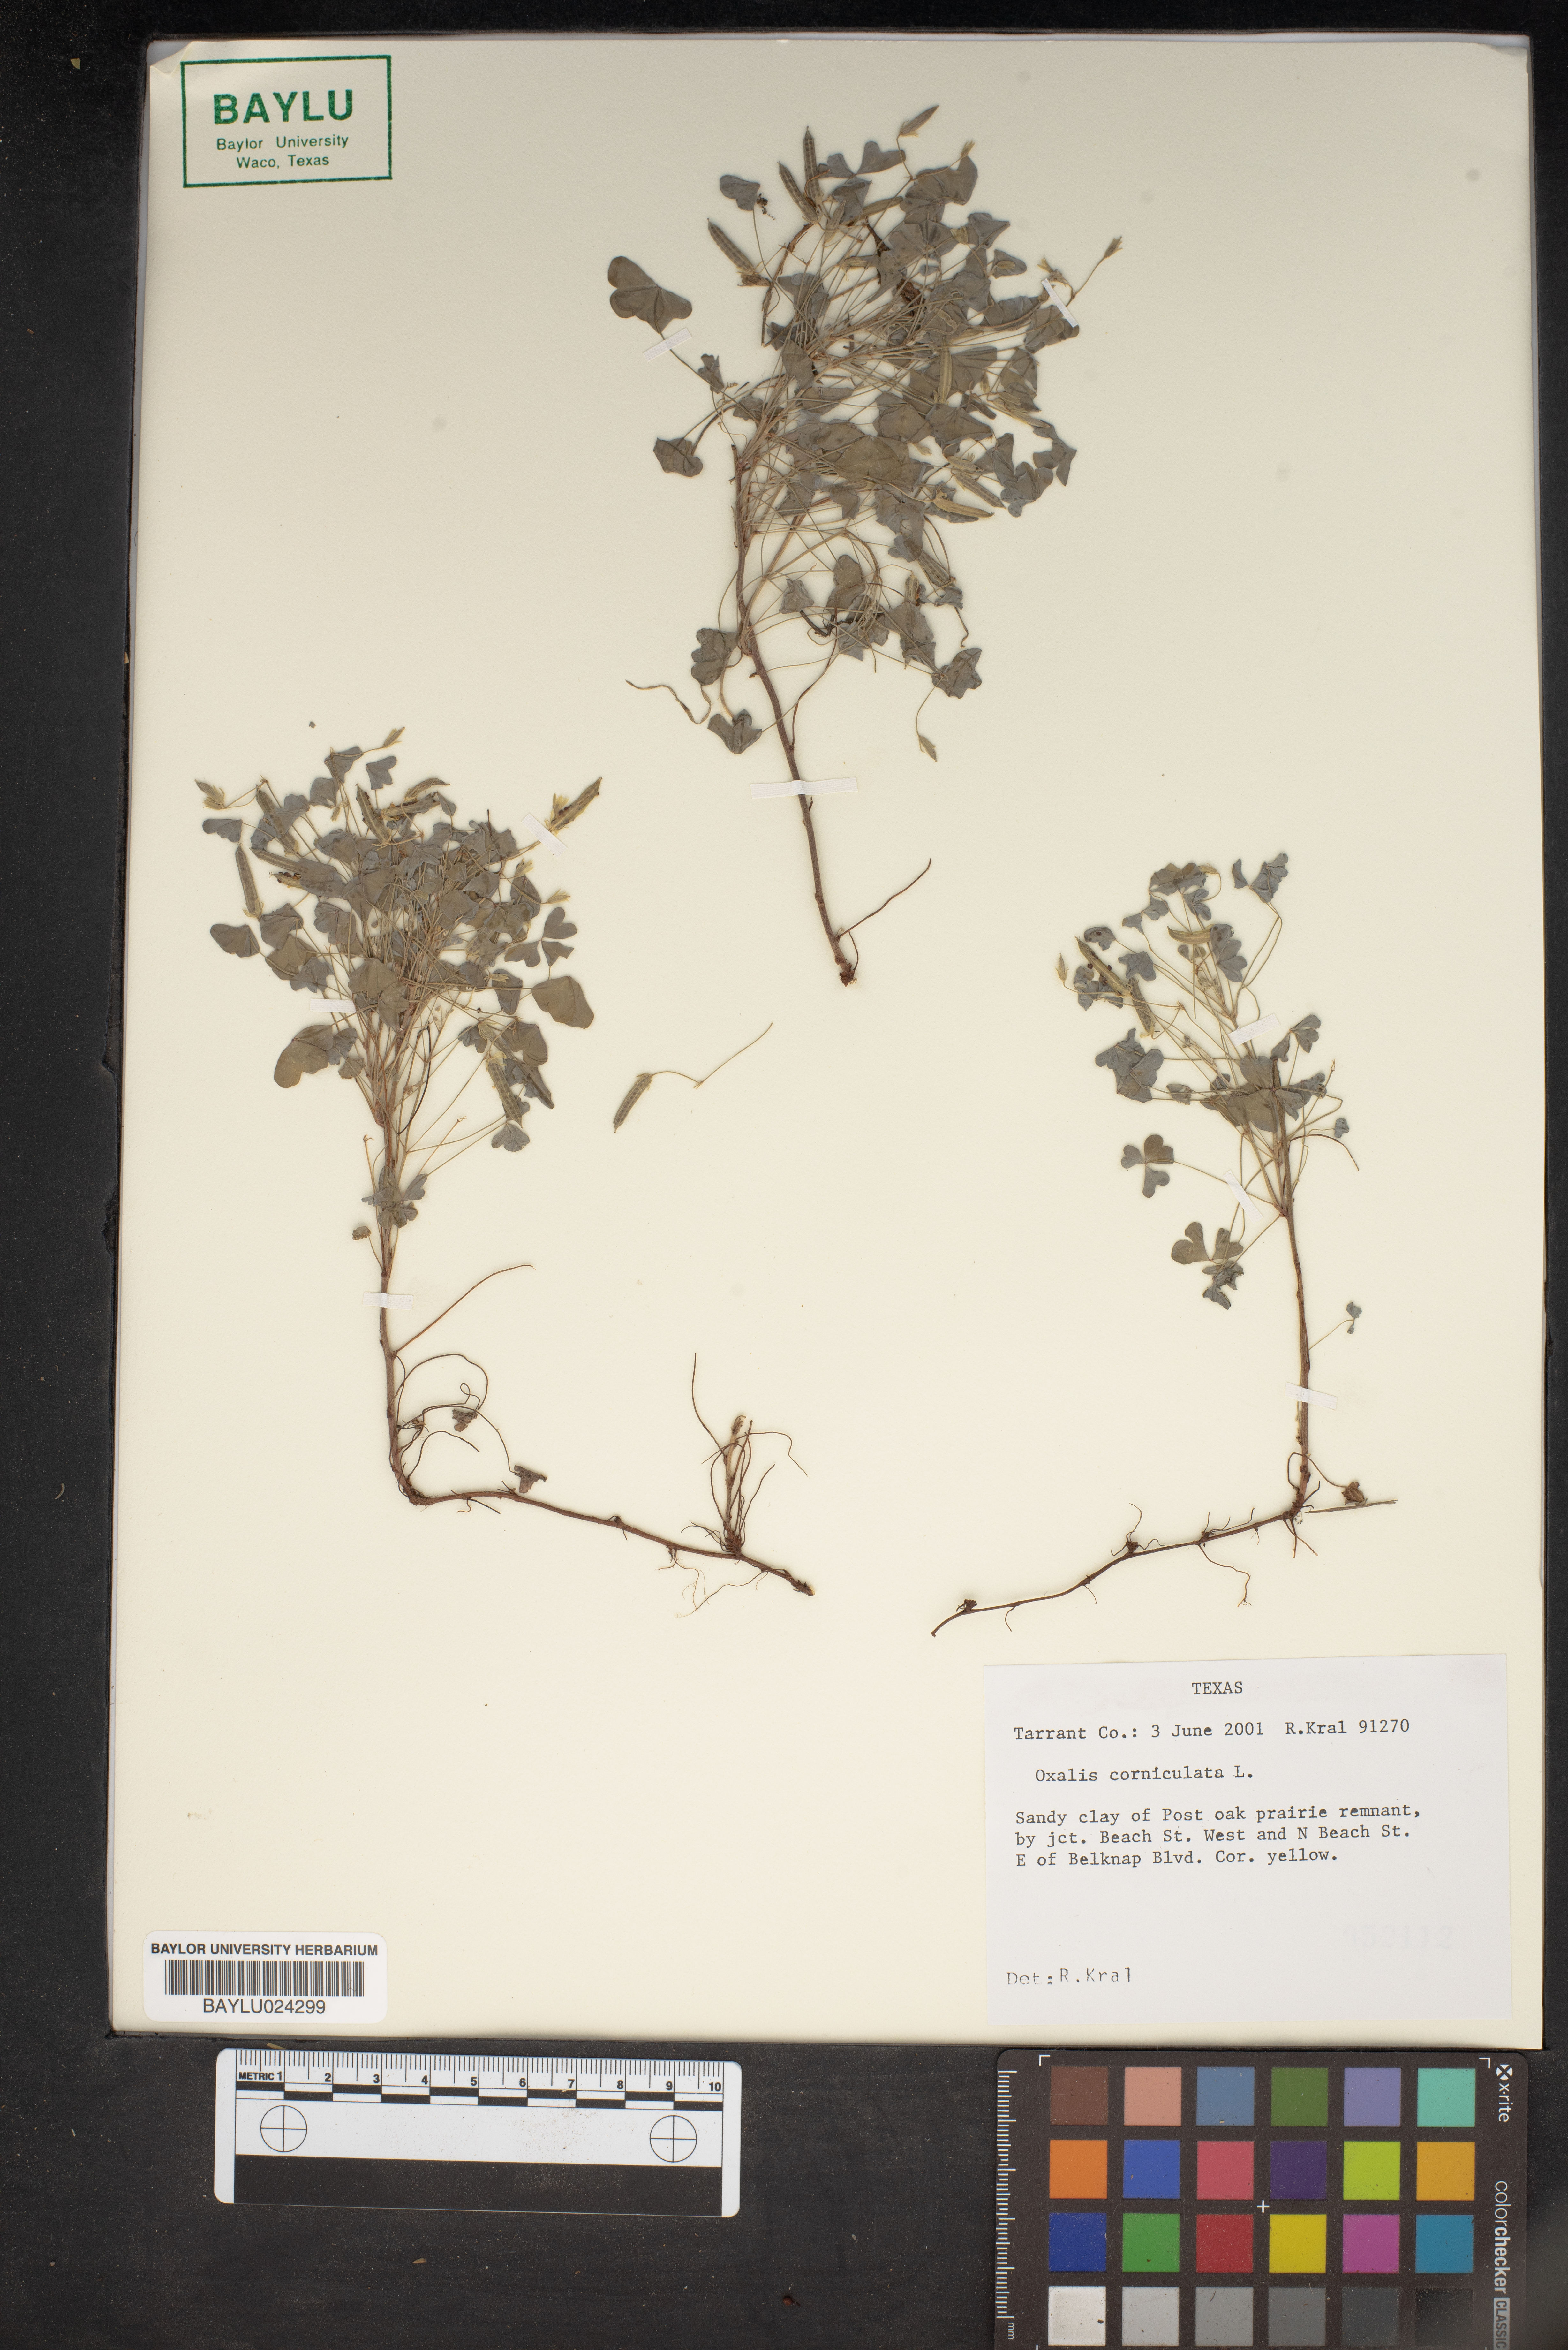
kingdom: Plantae
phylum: Tracheophyta
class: Magnoliopsida
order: Oxalidales
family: Oxalidaceae
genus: Oxalis
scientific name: Oxalis corniculata
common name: Procumbent yellow-sorrel
